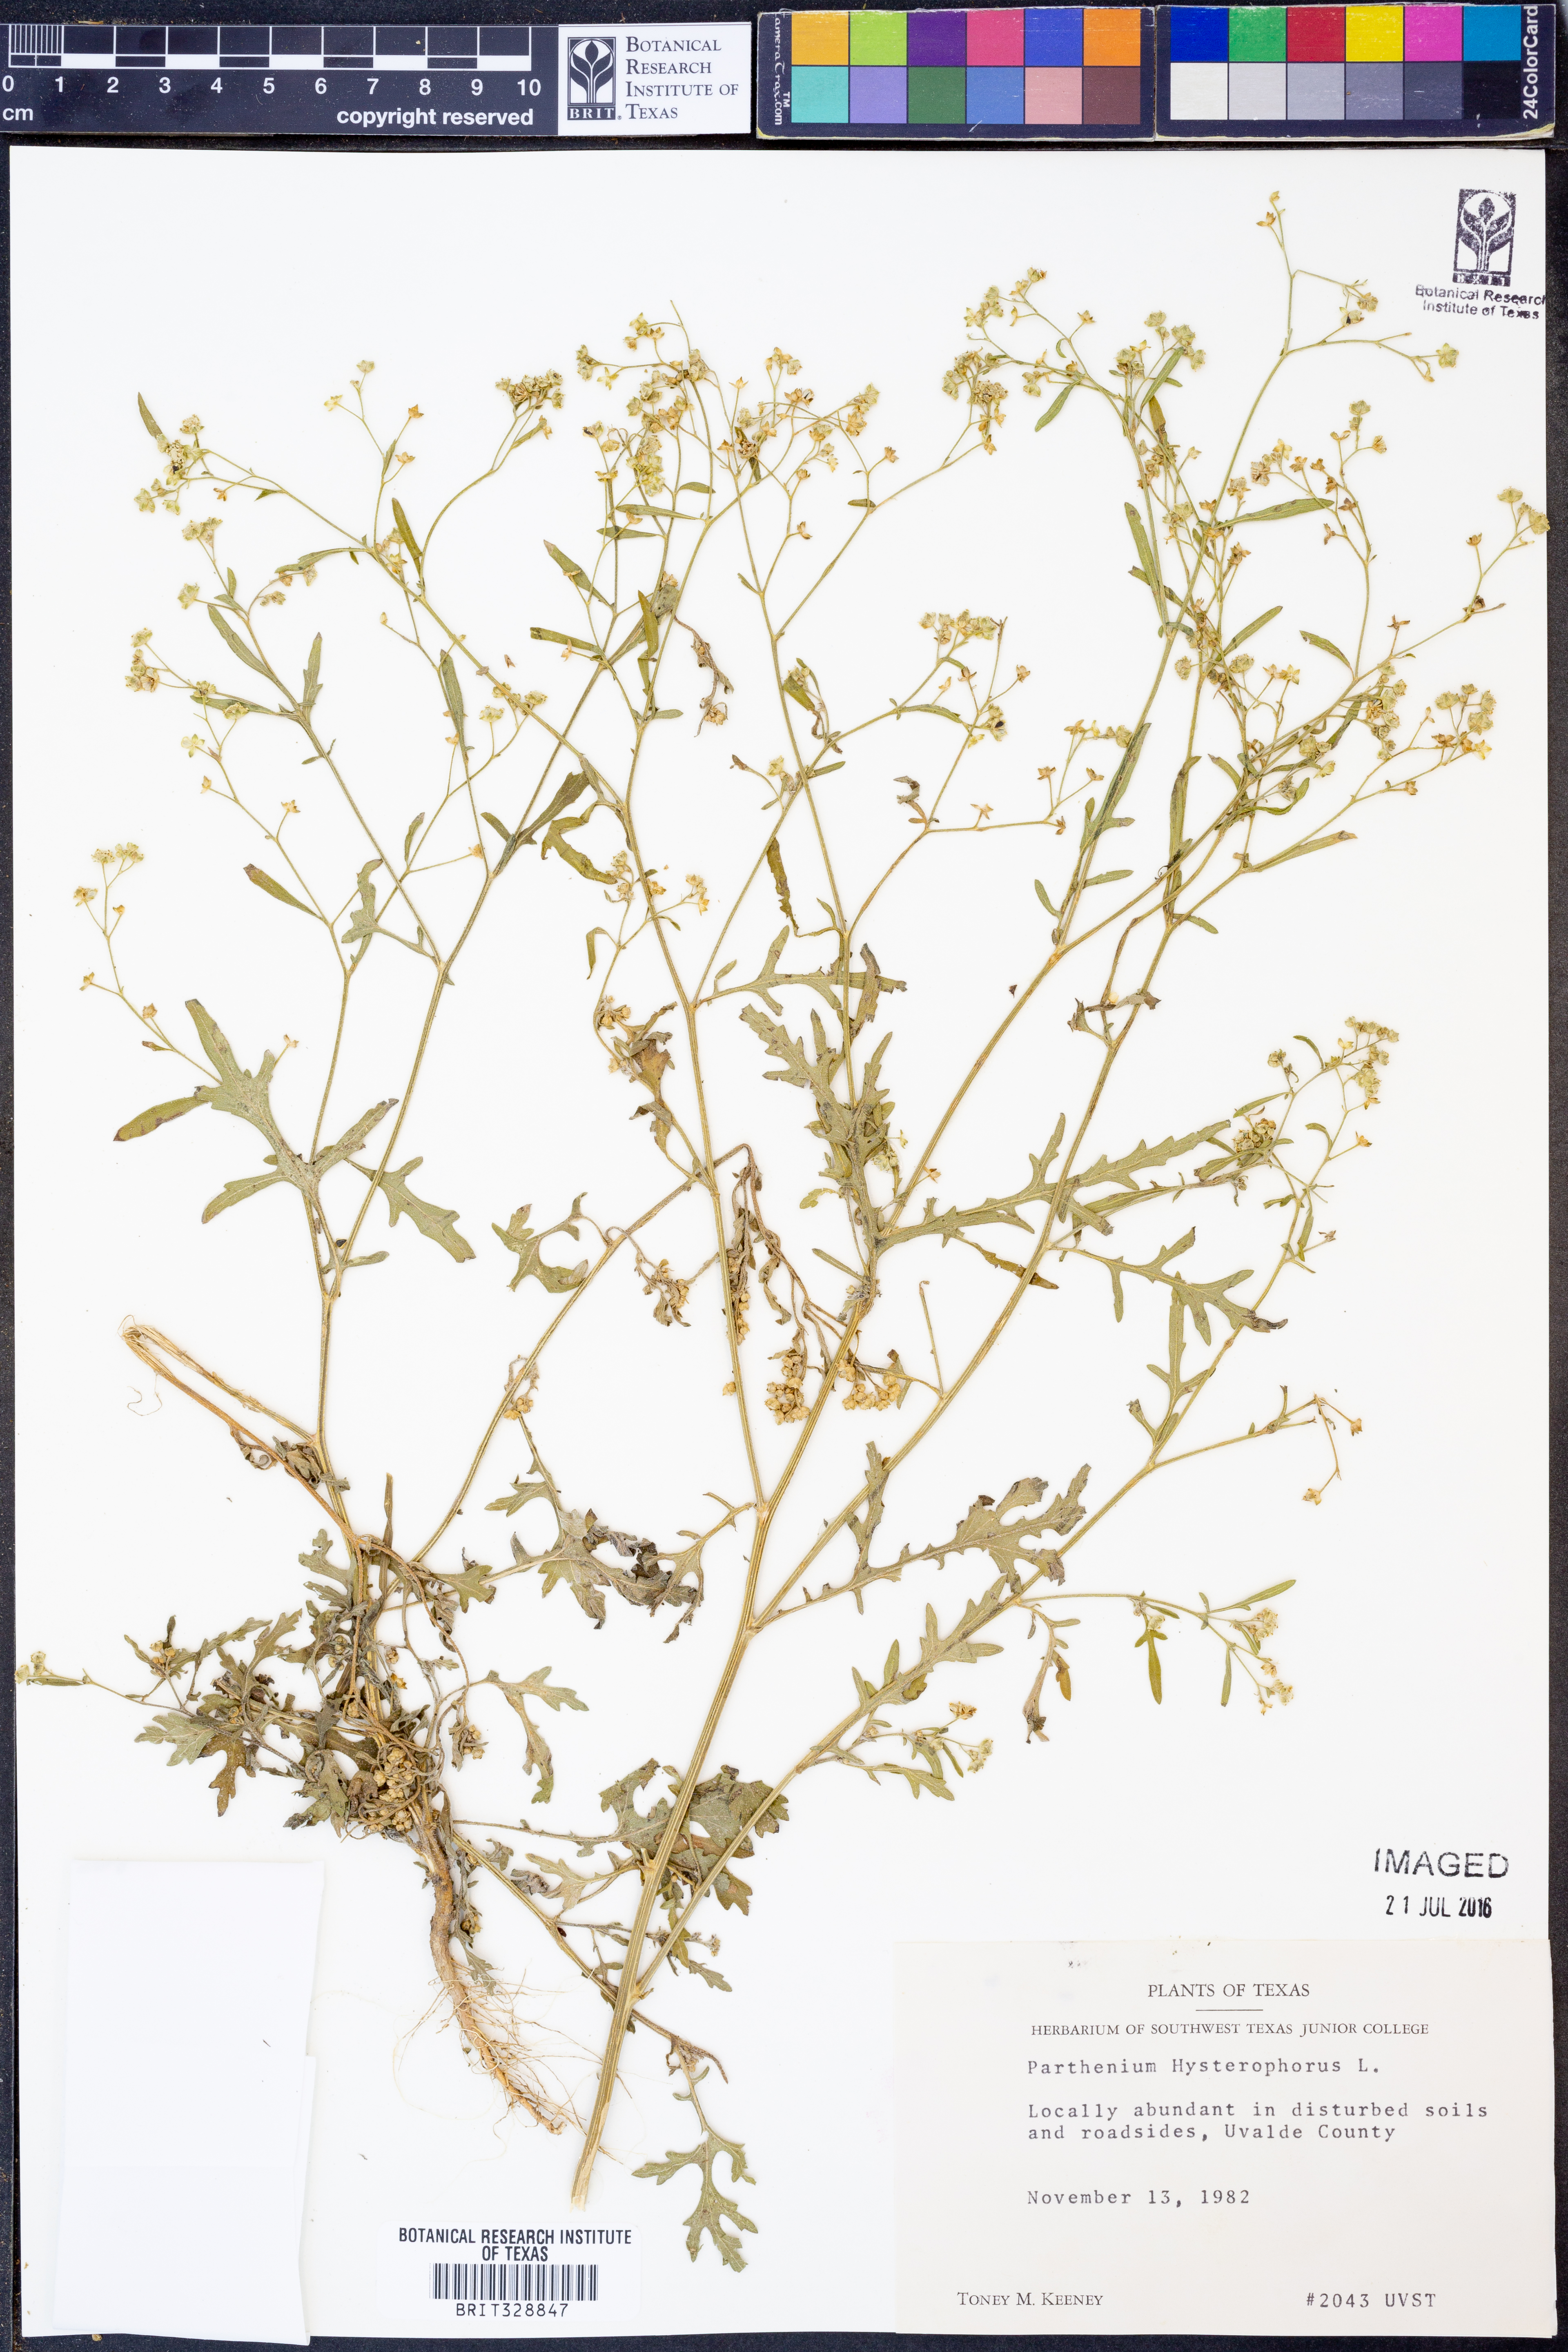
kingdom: Plantae
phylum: Tracheophyta
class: Magnoliopsida
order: Asterales
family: Asteraceae
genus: Parthenium
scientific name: Parthenium hysterophorus
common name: Santa maria feverfew
